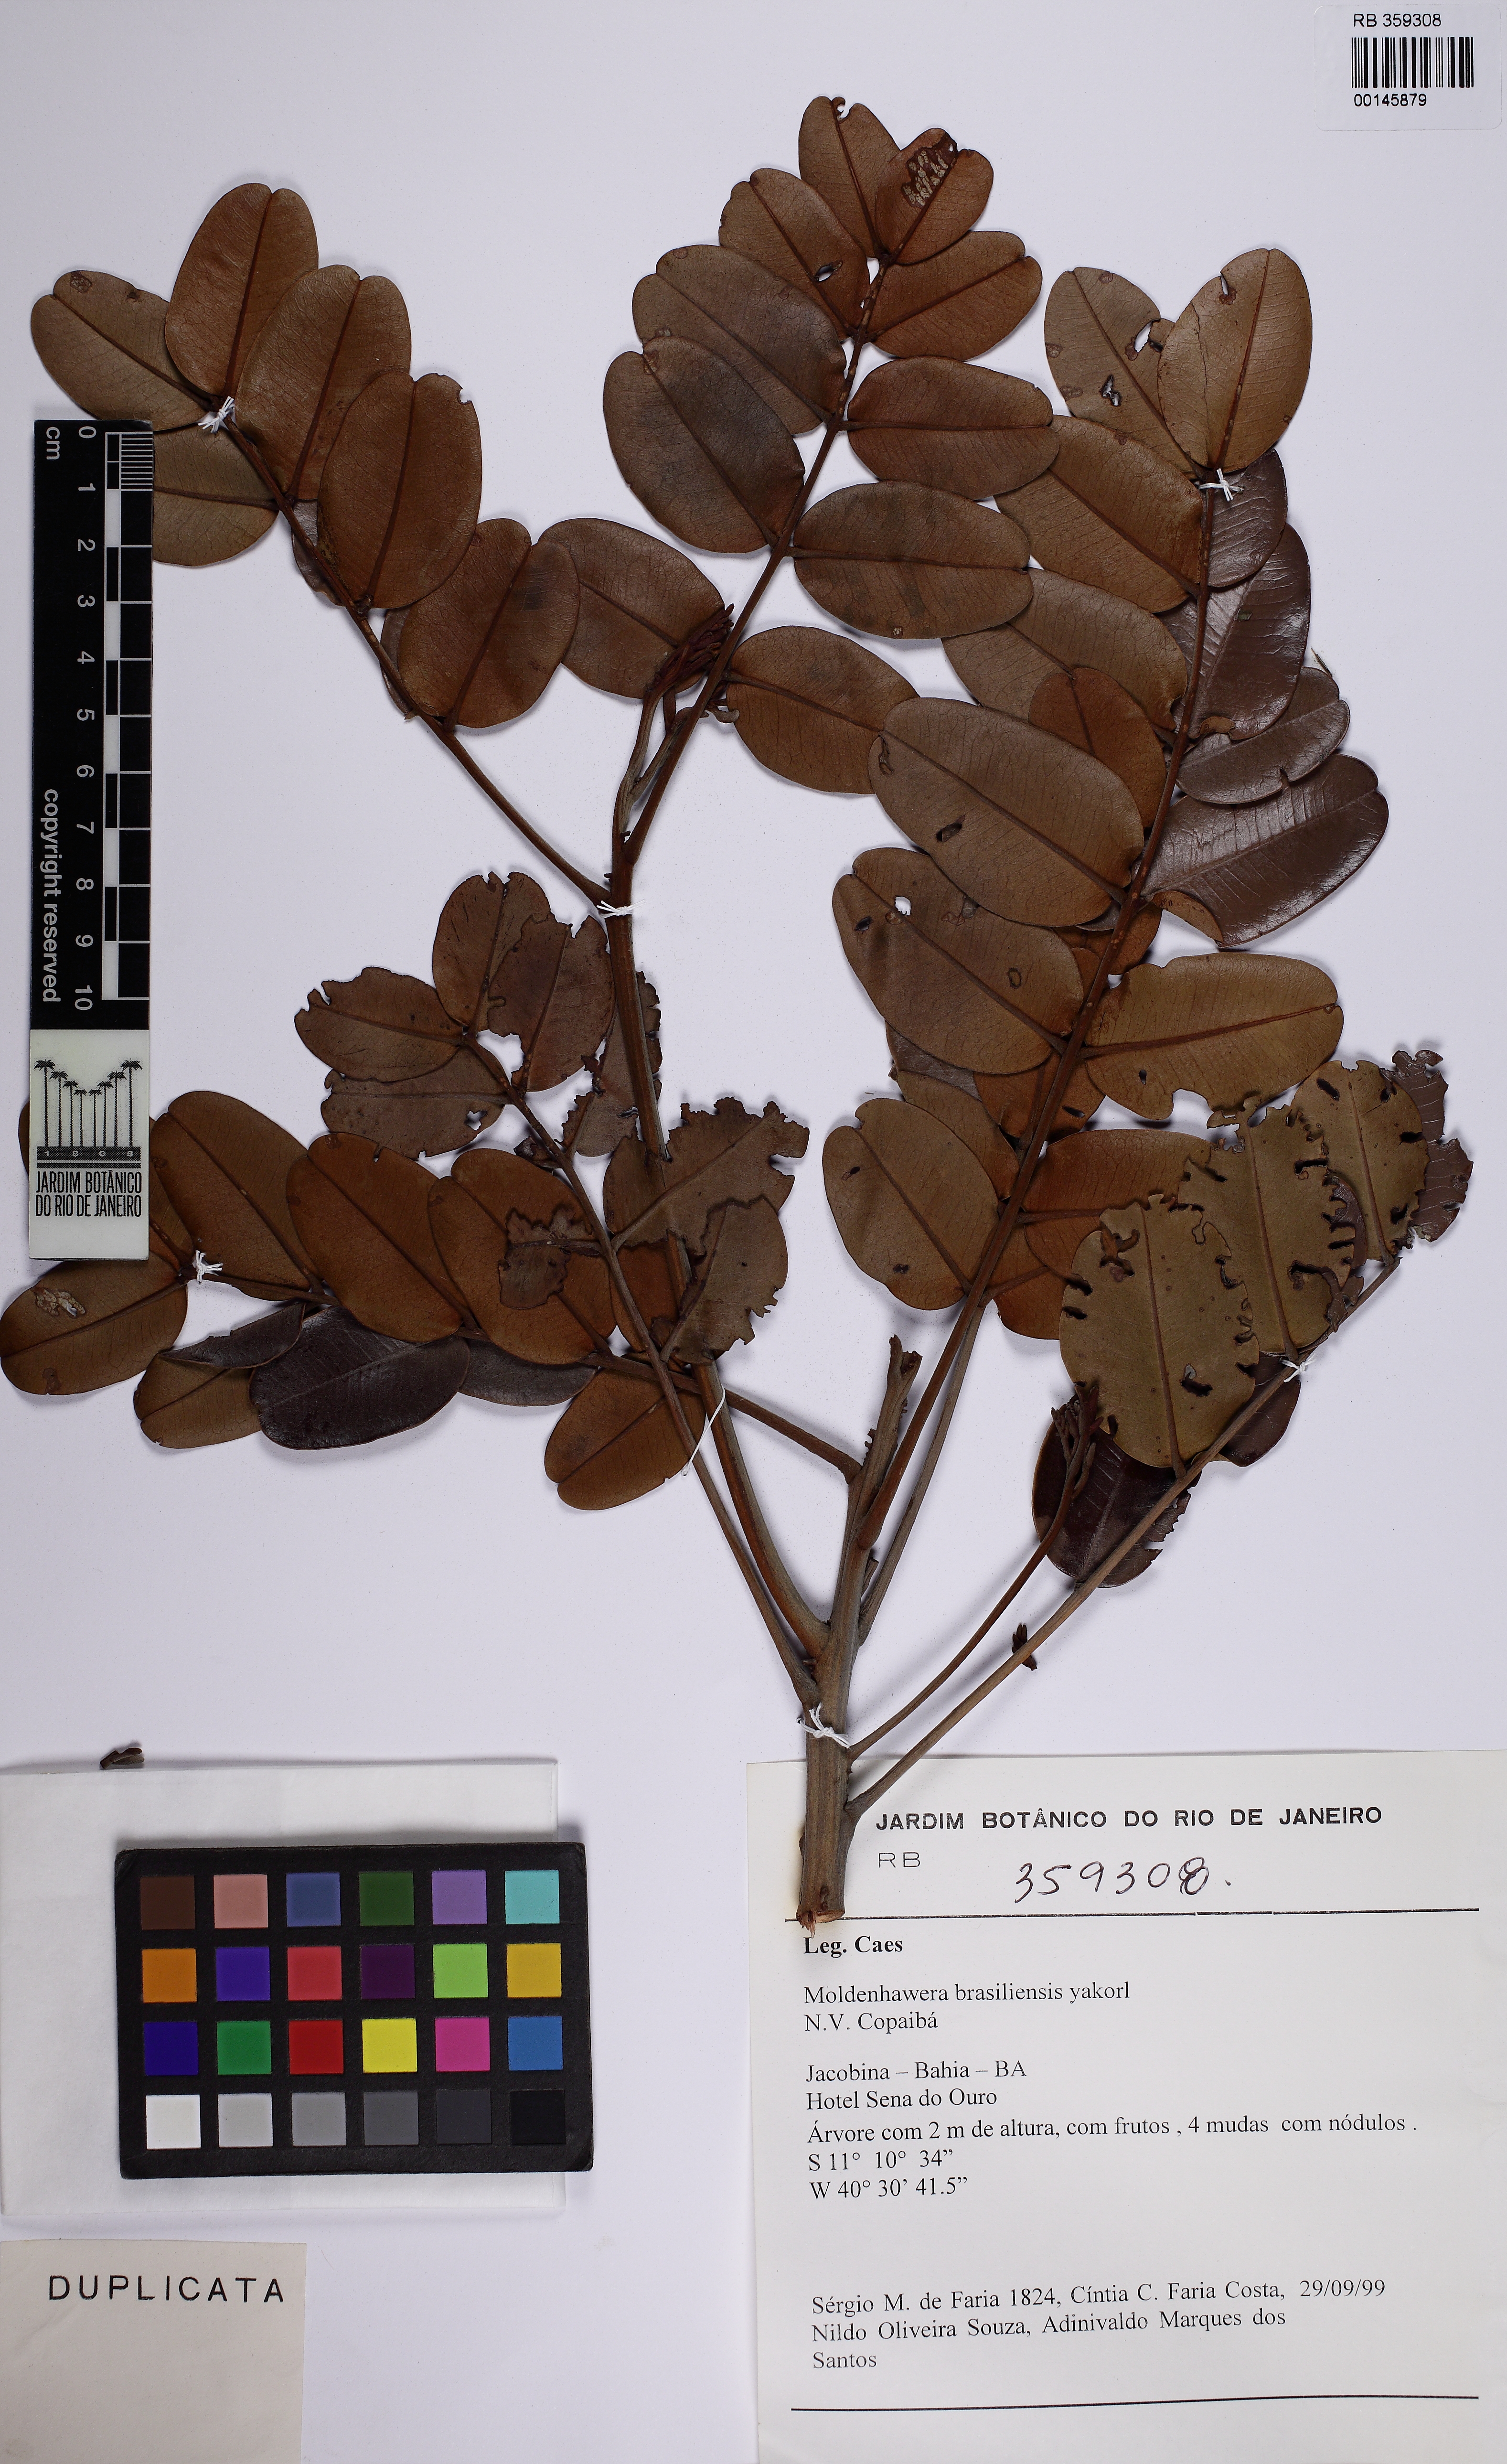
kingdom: Plantae
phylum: Tracheophyta
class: Magnoliopsida
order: Fabales
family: Fabaceae
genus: Moldenhawera
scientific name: Moldenhawera brasiliensis
